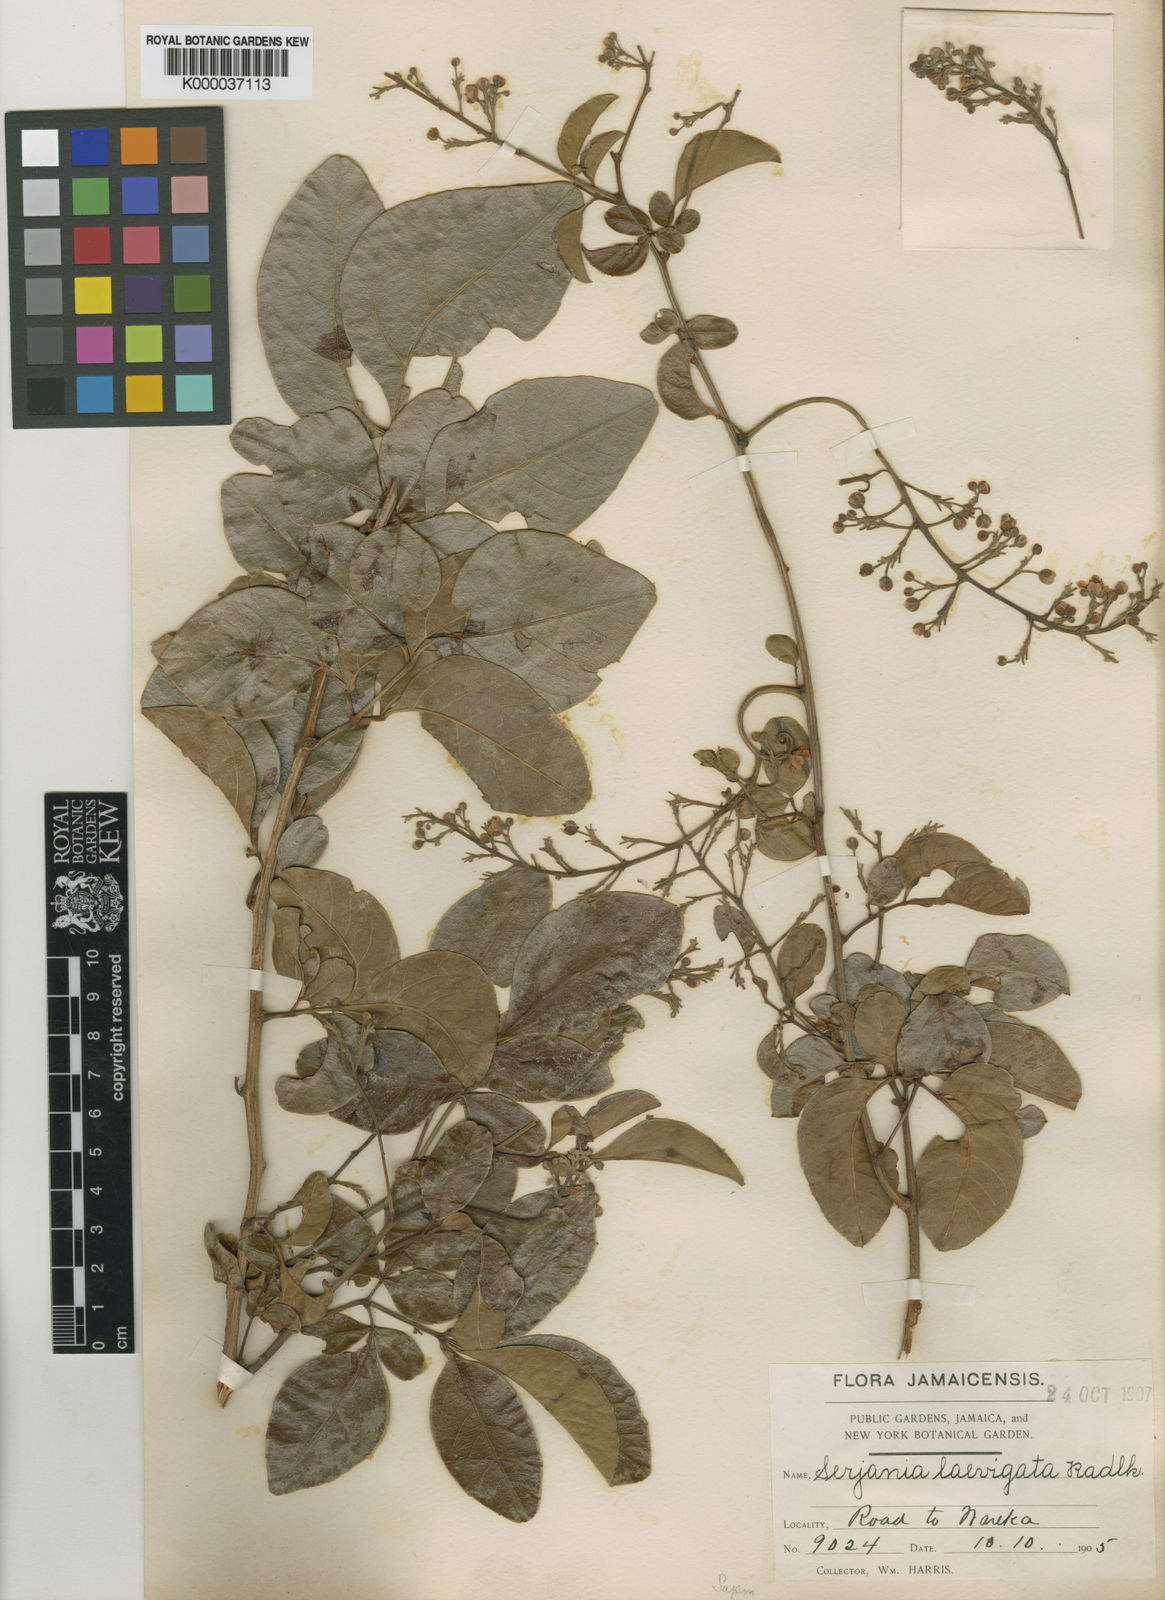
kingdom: Plantae
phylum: Tracheophyta
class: Magnoliopsida
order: Sapindales
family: Sapindaceae
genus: Serjania
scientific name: Serjania laevigata
